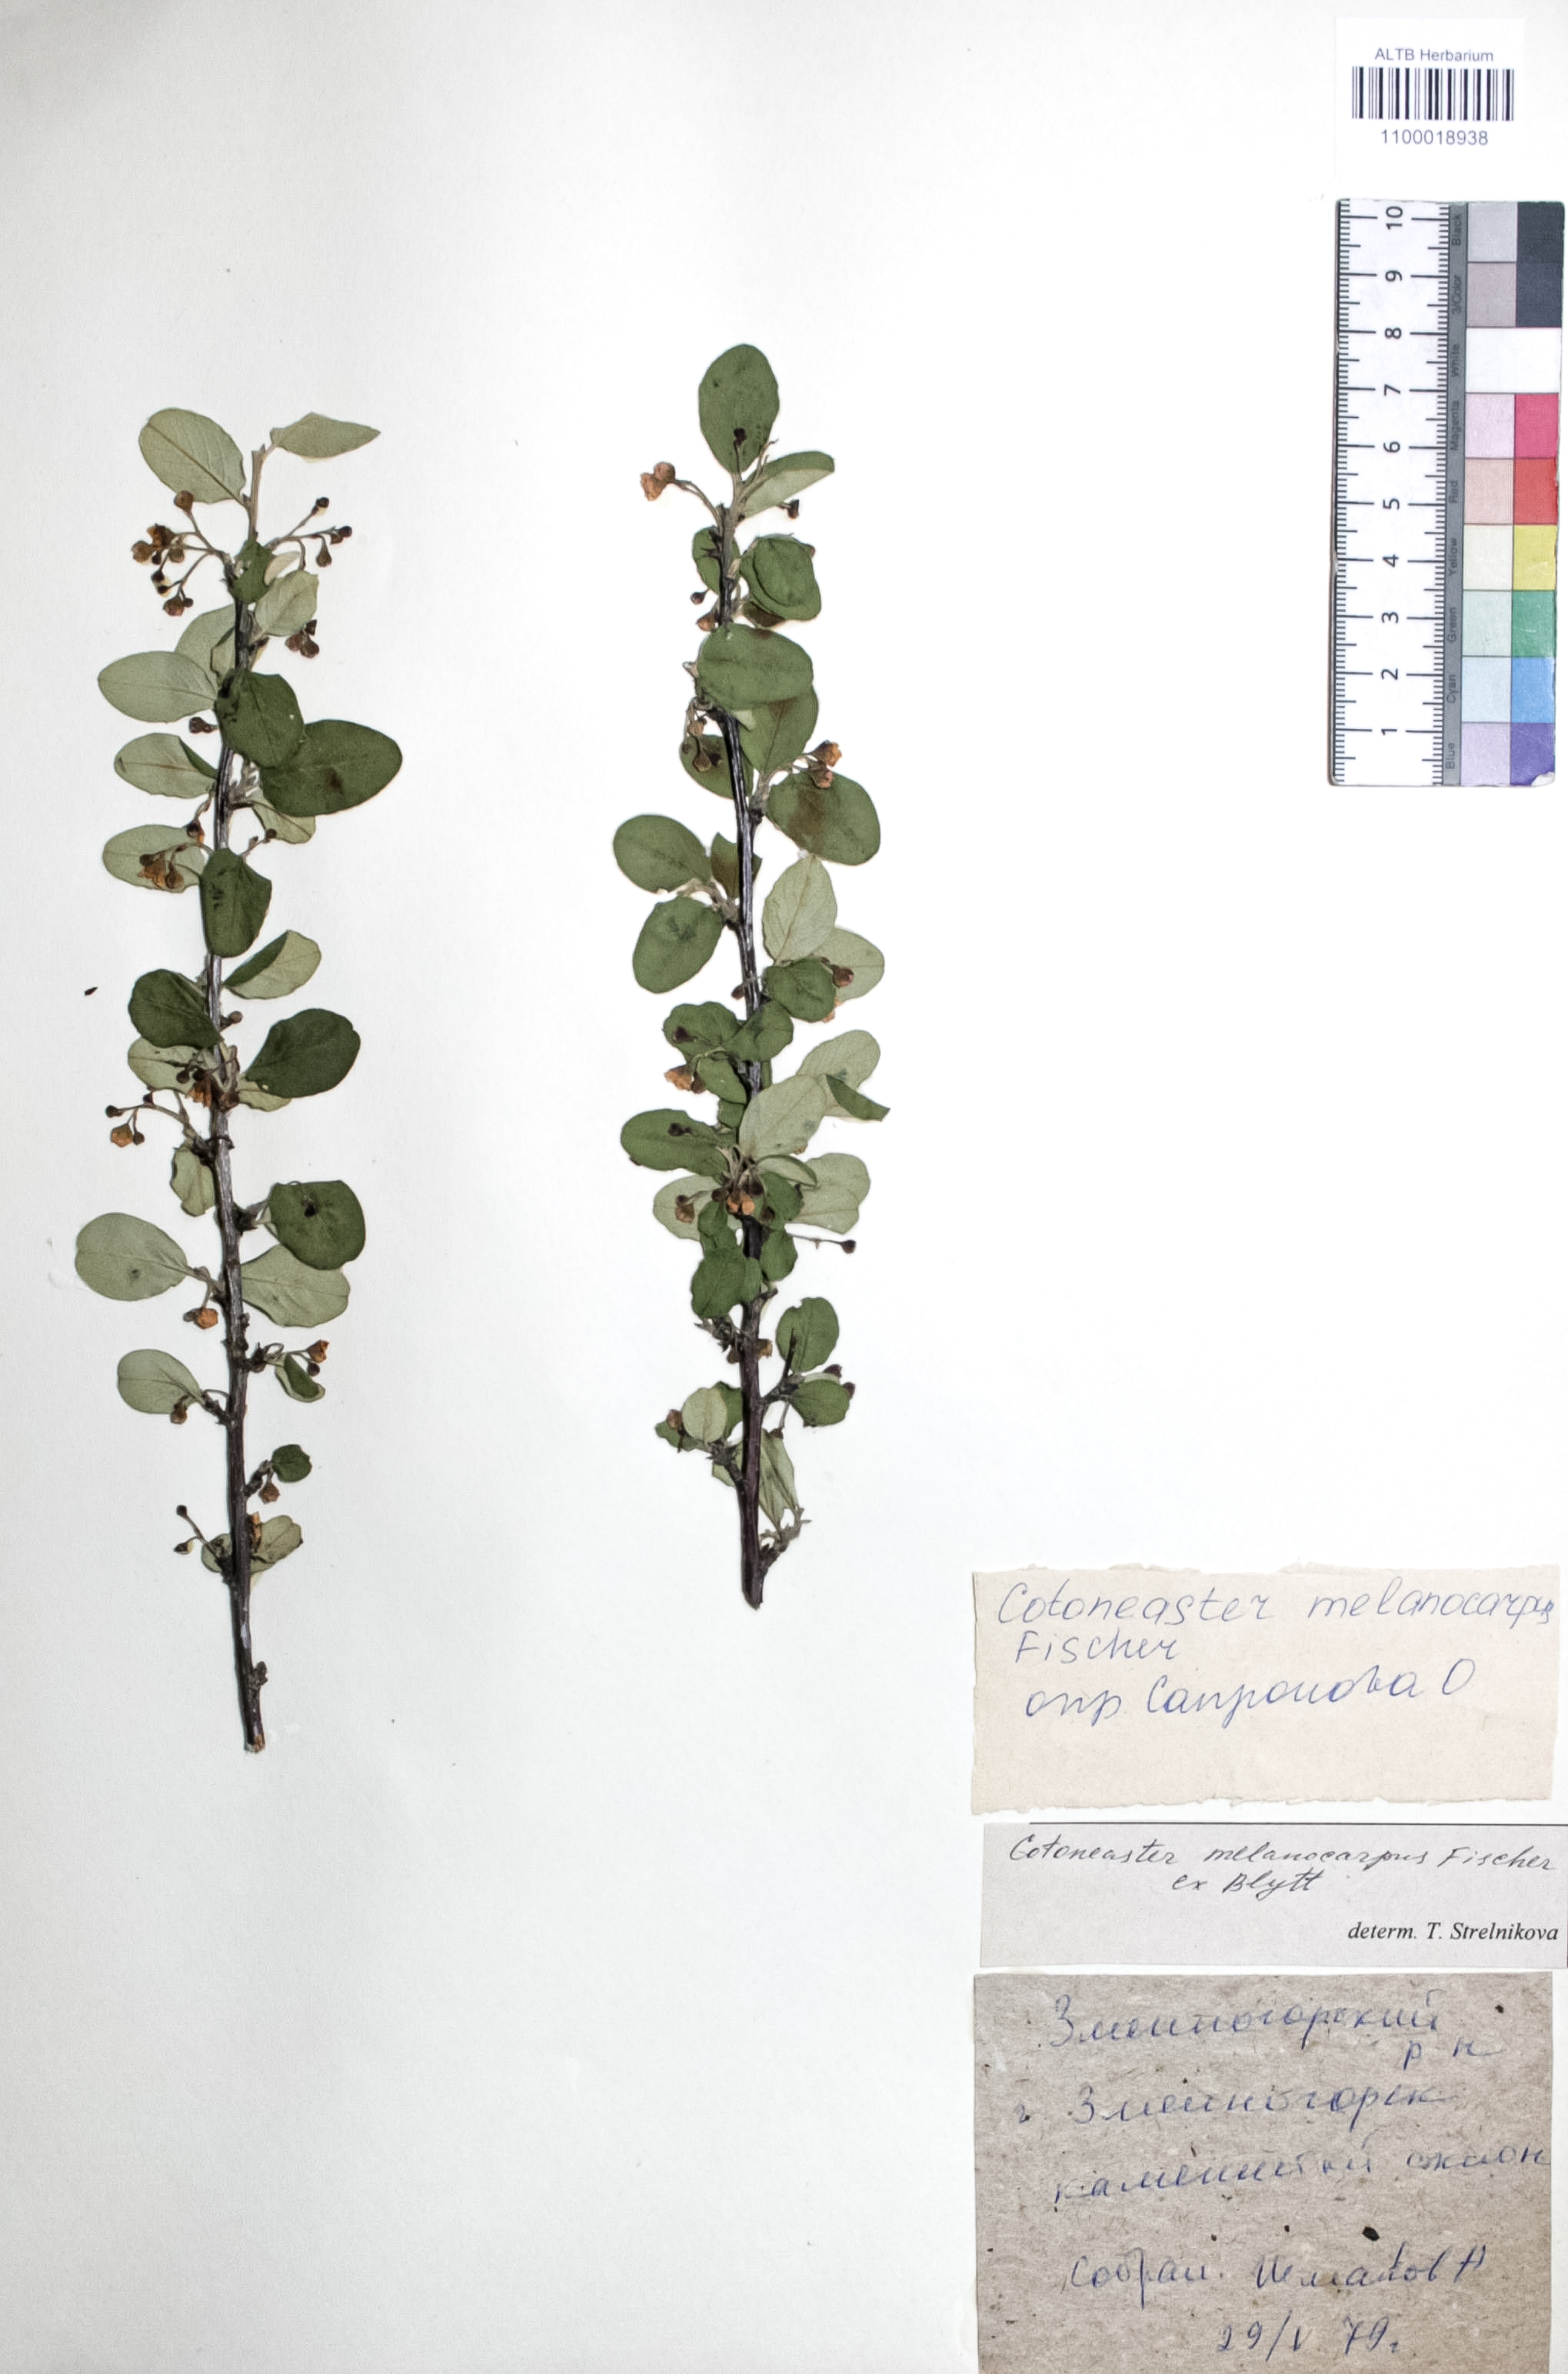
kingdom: Plantae
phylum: Tracheophyta
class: Magnoliopsida
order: Rosales
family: Rosaceae
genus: Cotoneaster
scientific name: Cotoneaster niger
